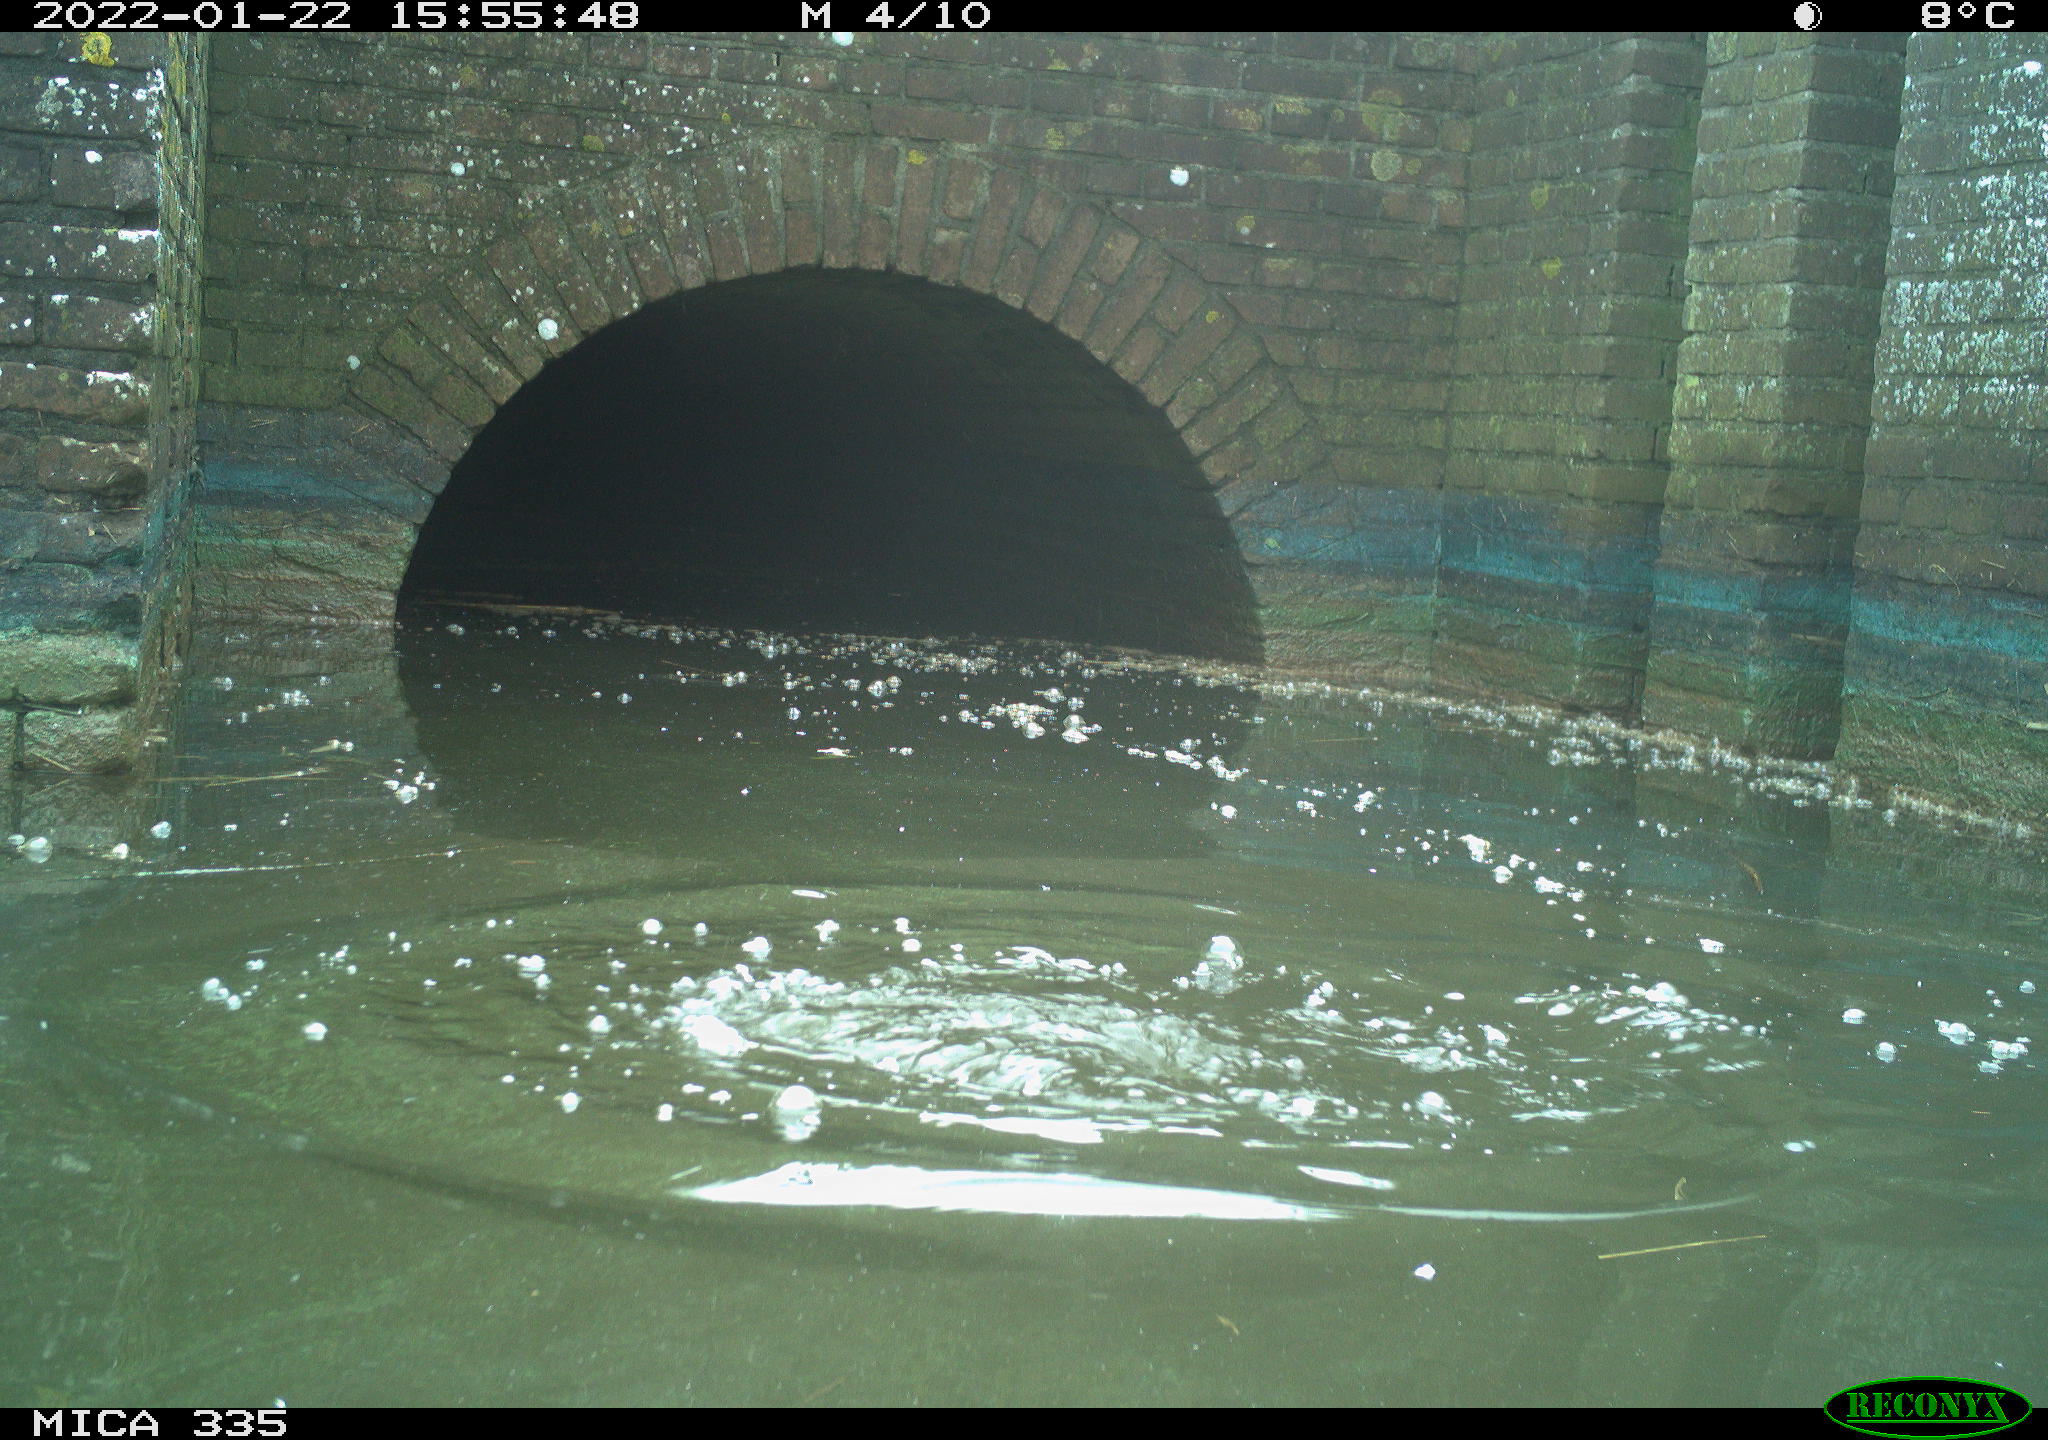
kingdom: Animalia
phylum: Chordata
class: Aves
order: Suliformes
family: Phalacrocoracidae
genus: Phalacrocorax
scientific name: Phalacrocorax carbo
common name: Great cormorant
